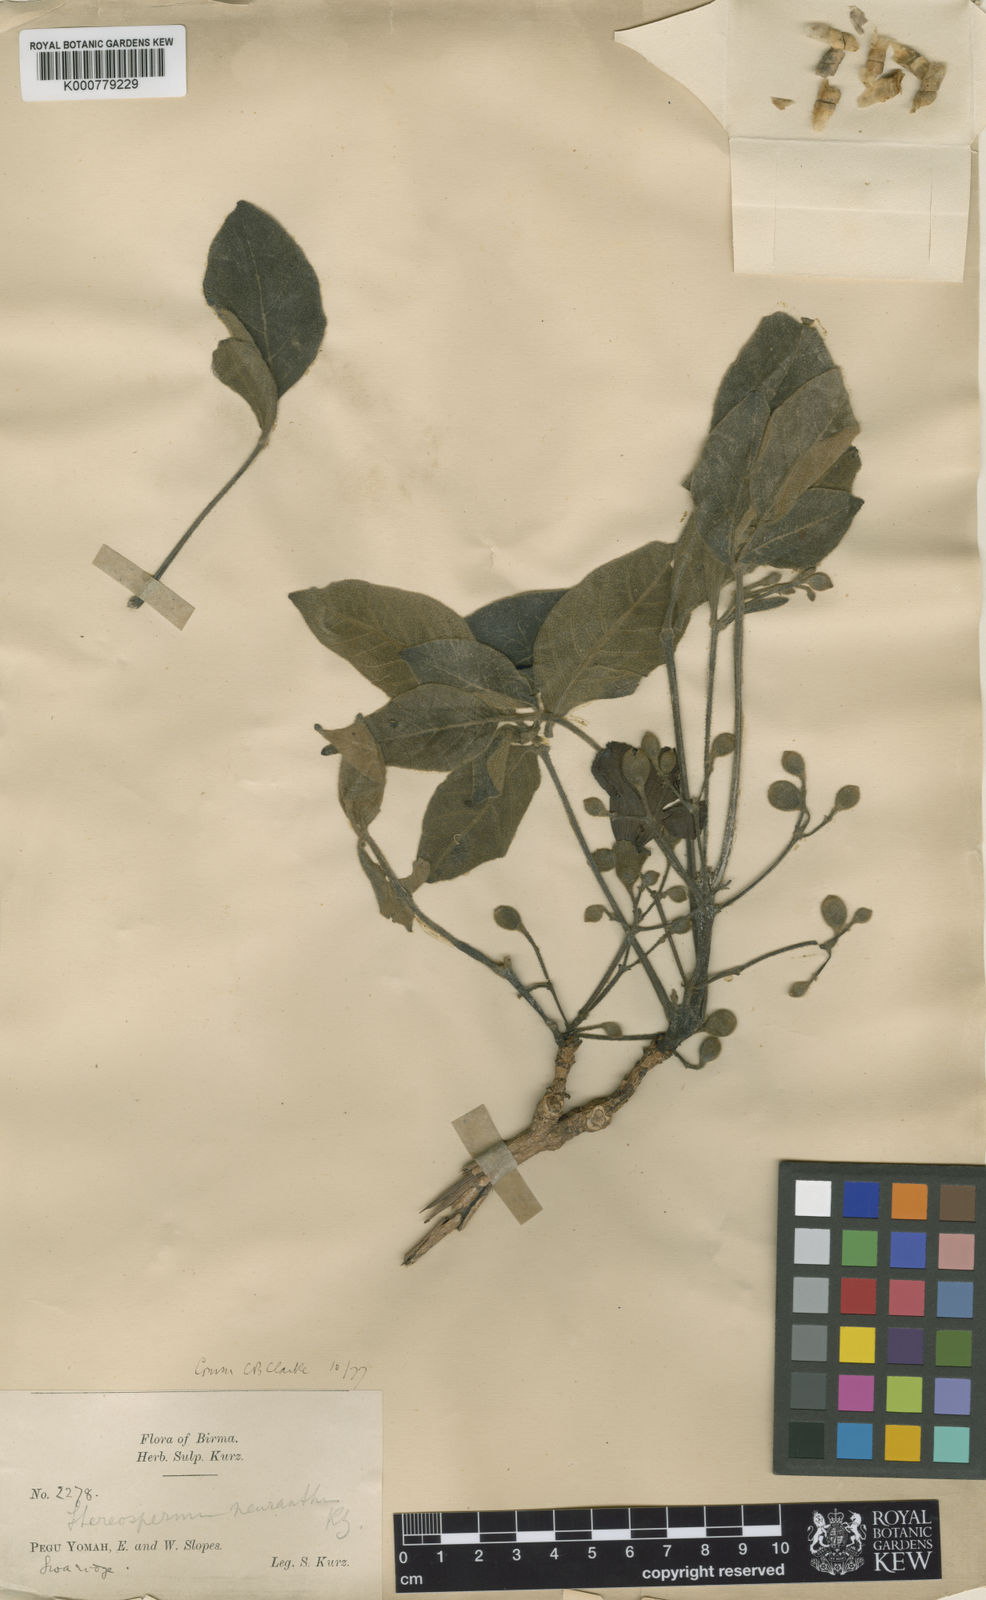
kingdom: Plantae
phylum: Tracheophyta
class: Magnoliopsida
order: Lamiales
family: Bignoniaceae
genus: Stereospermum
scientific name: Stereospermum neuranthum
